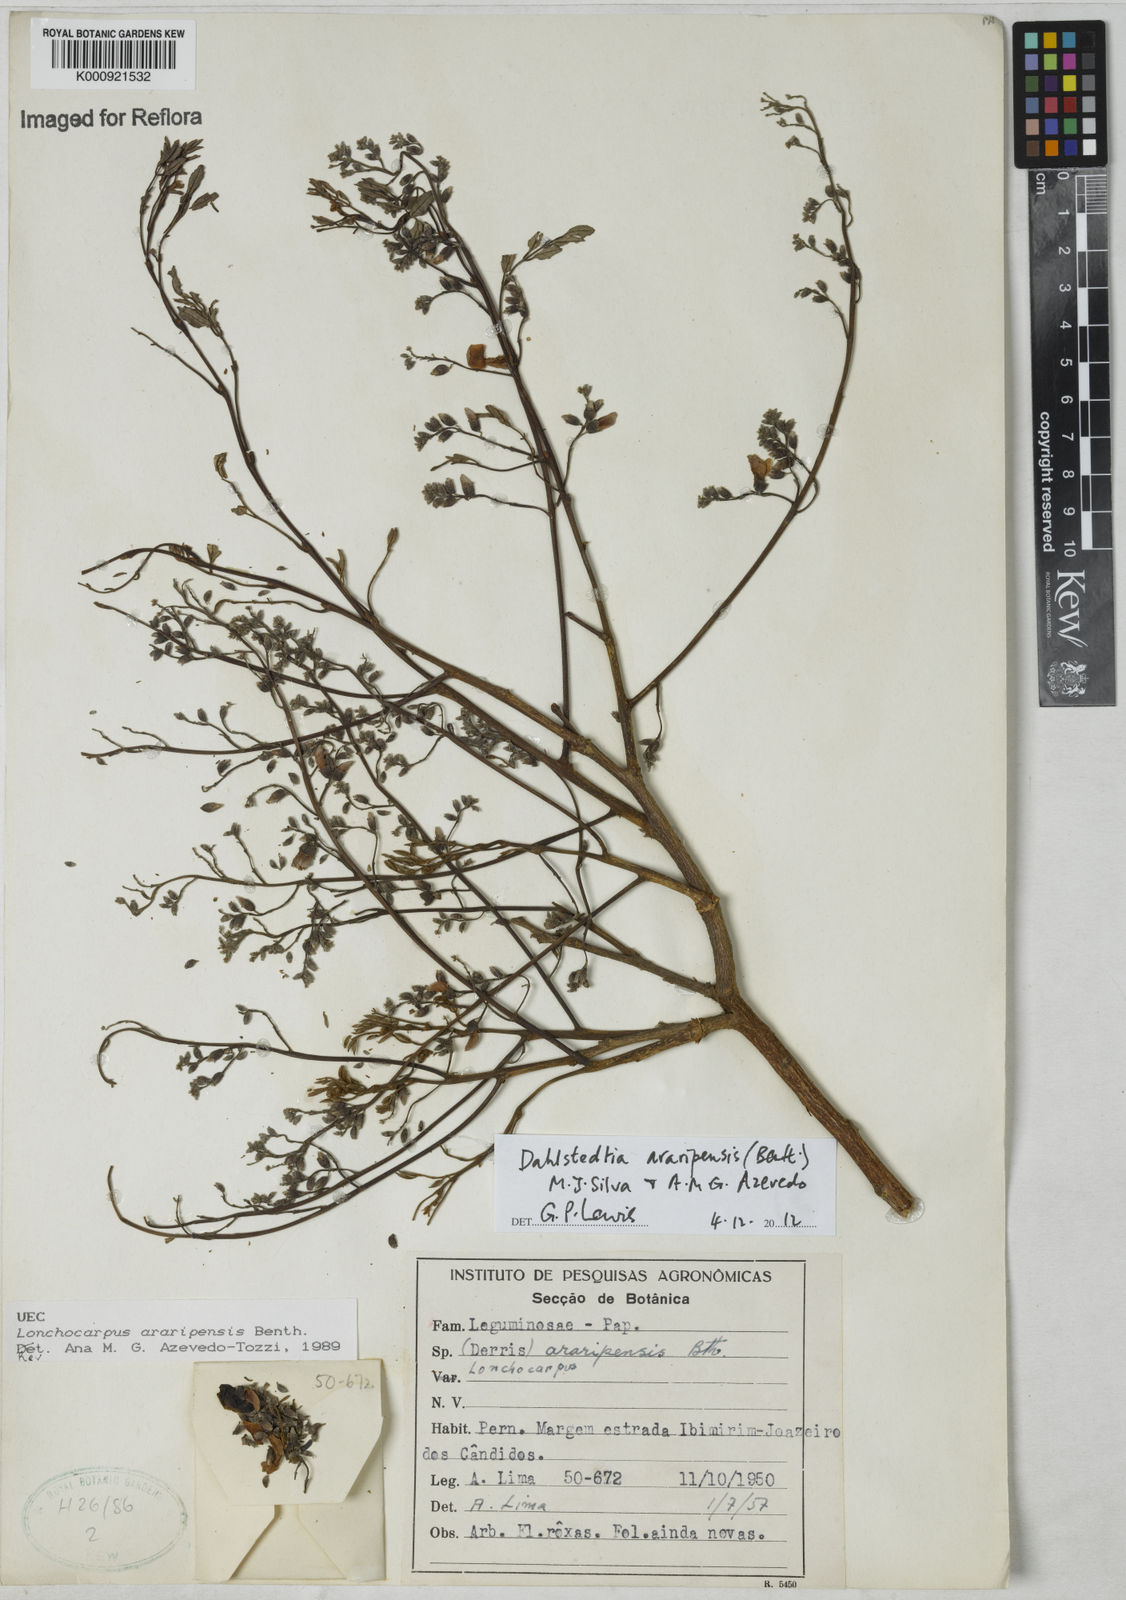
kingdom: Plantae
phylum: Tracheophyta
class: Magnoliopsida
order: Fabales
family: Fabaceae
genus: Dahlstedtia
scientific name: Dahlstedtia araripensis
